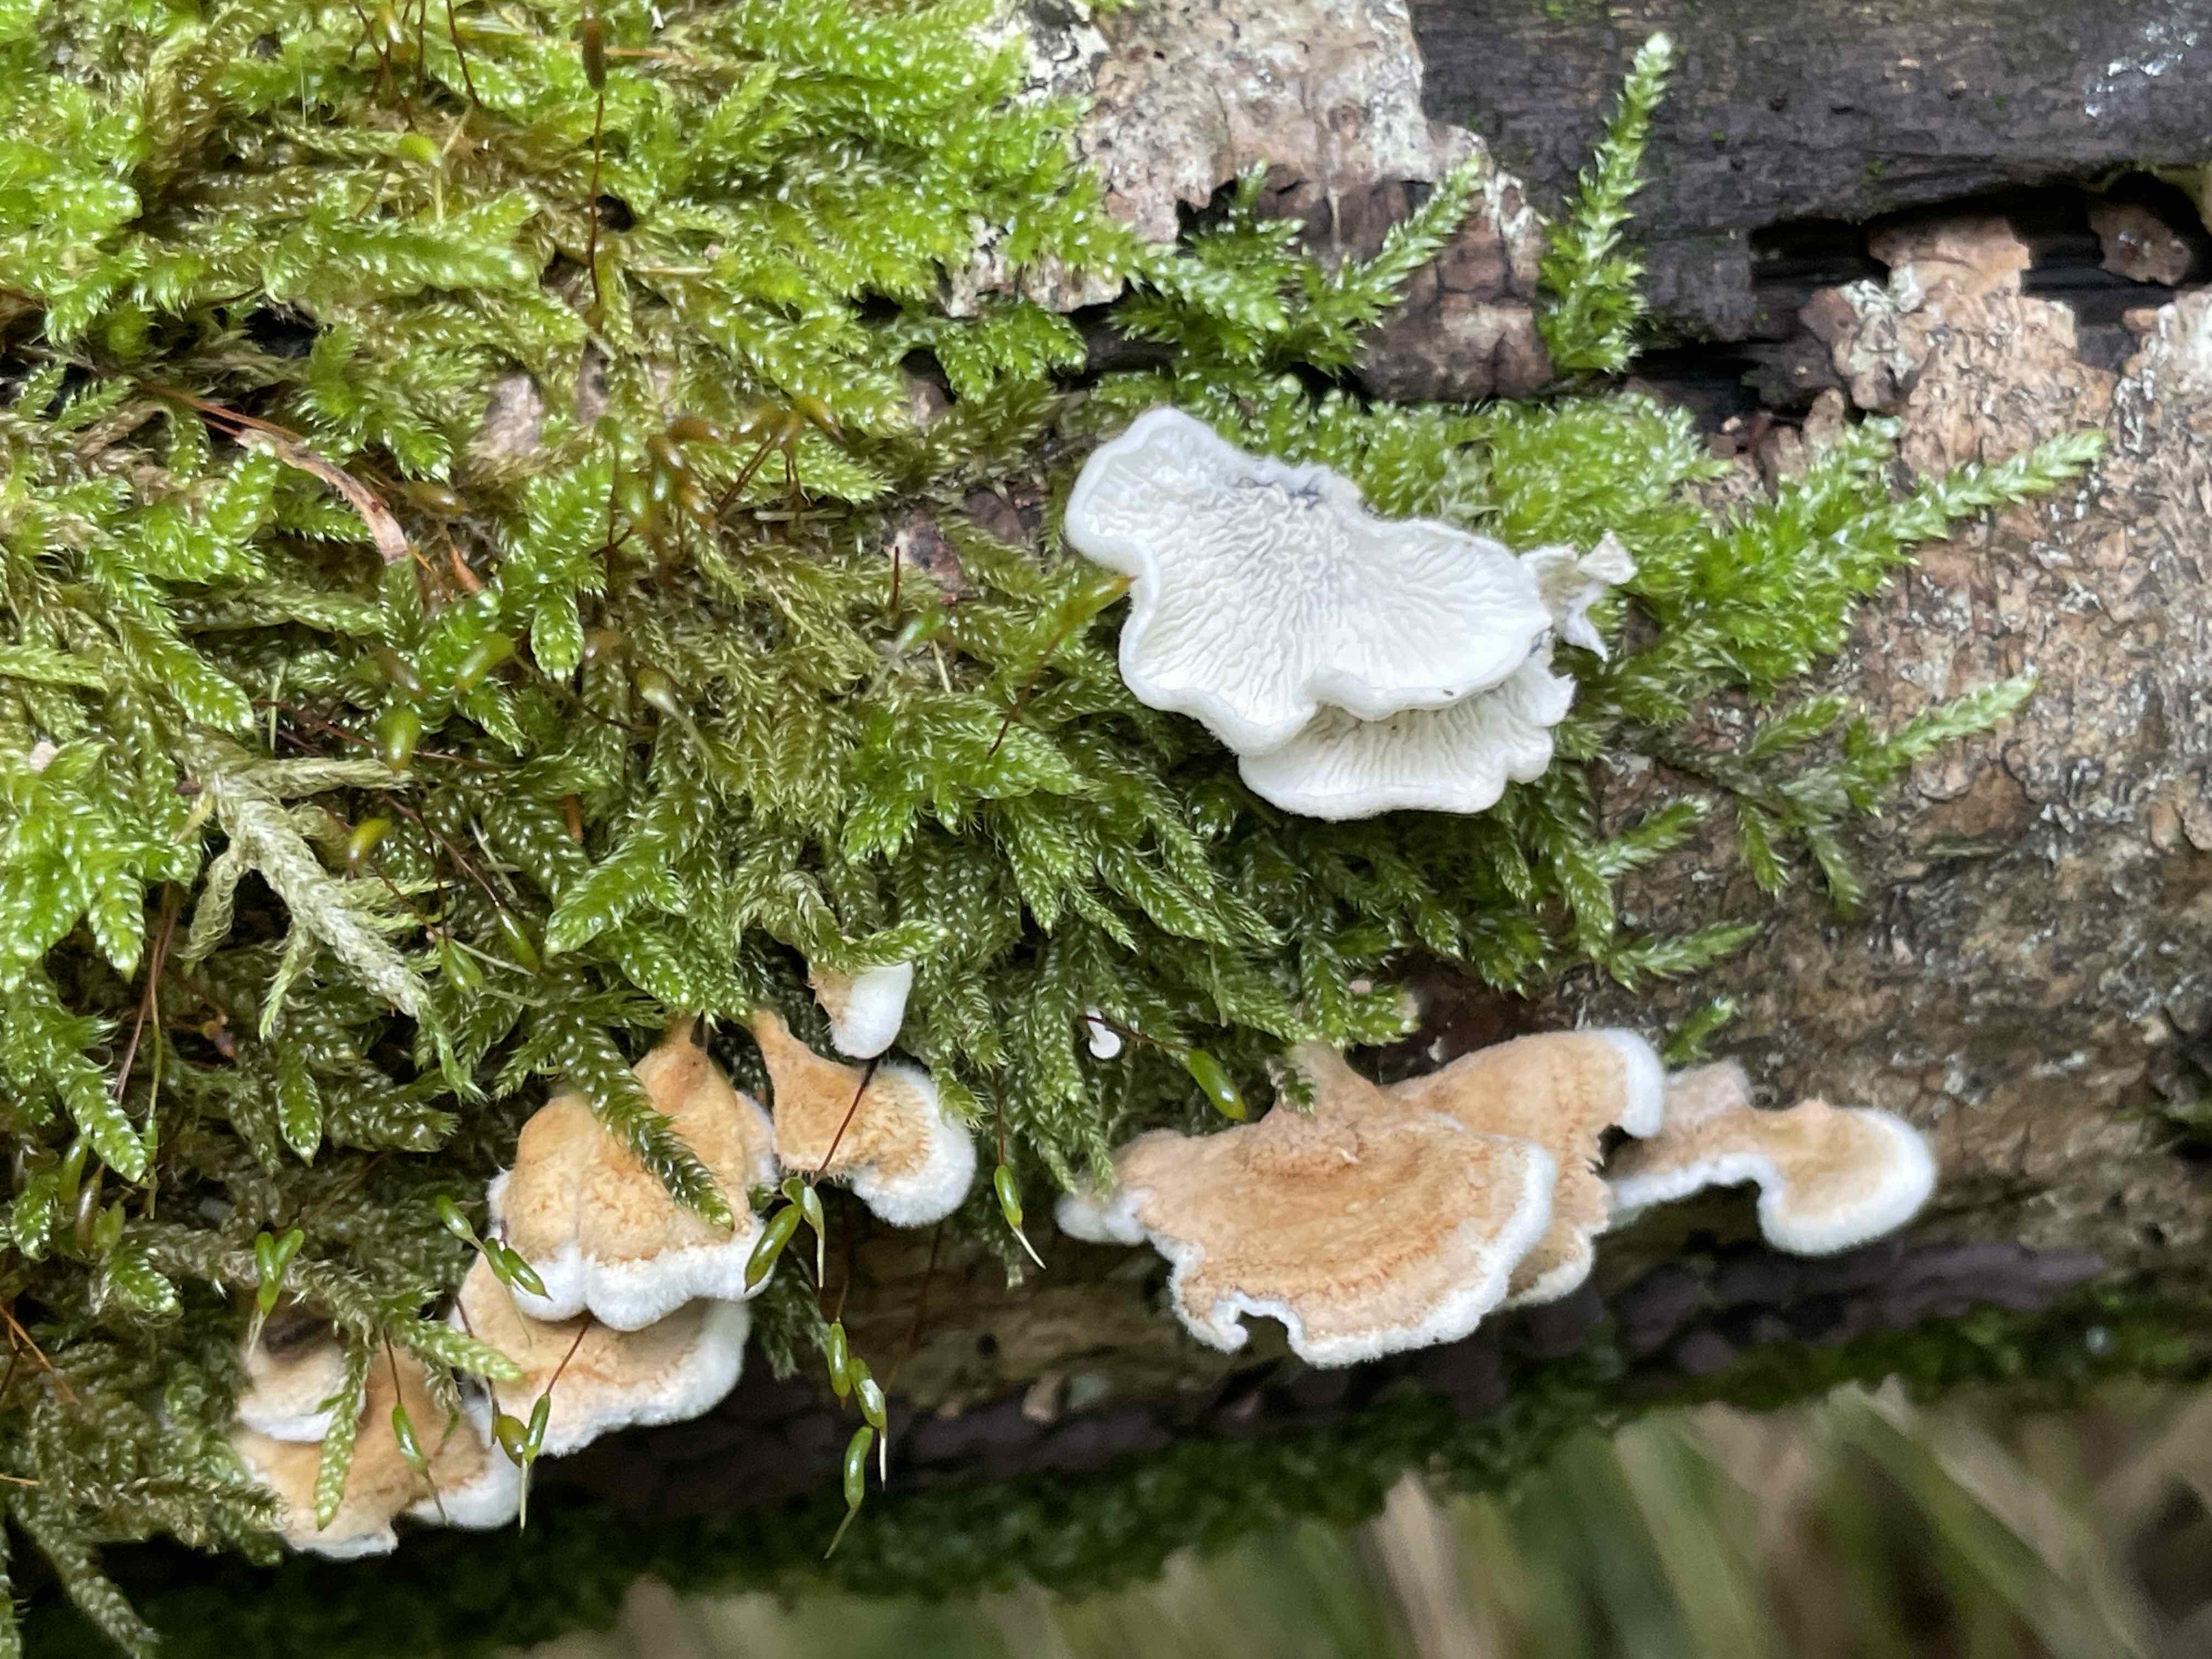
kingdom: Fungi
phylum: Basidiomycota
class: Agaricomycetes
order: Amylocorticiales
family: Amylocorticiaceae
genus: Plicaturopsis
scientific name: Plicaturopsis crispa
